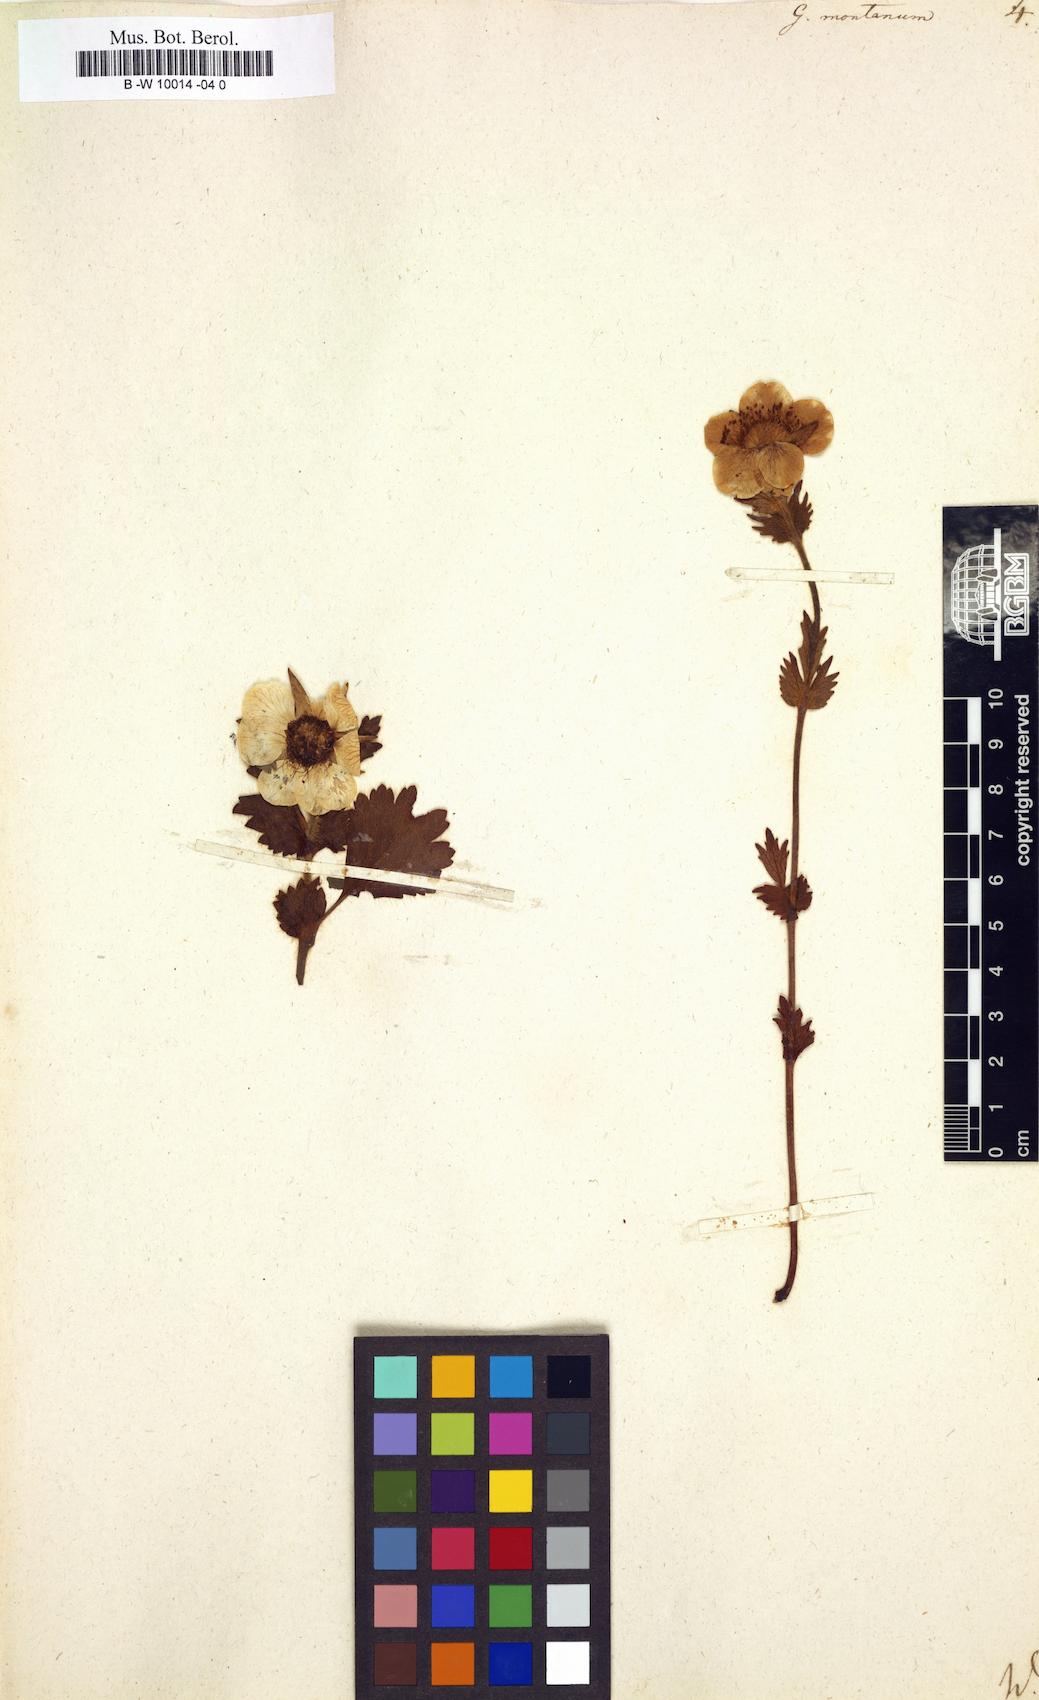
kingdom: Plantae
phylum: Tracheophyta
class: Magnoliopsida
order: Rosales
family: Rosaceae
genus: Geum
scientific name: Geum montanum
